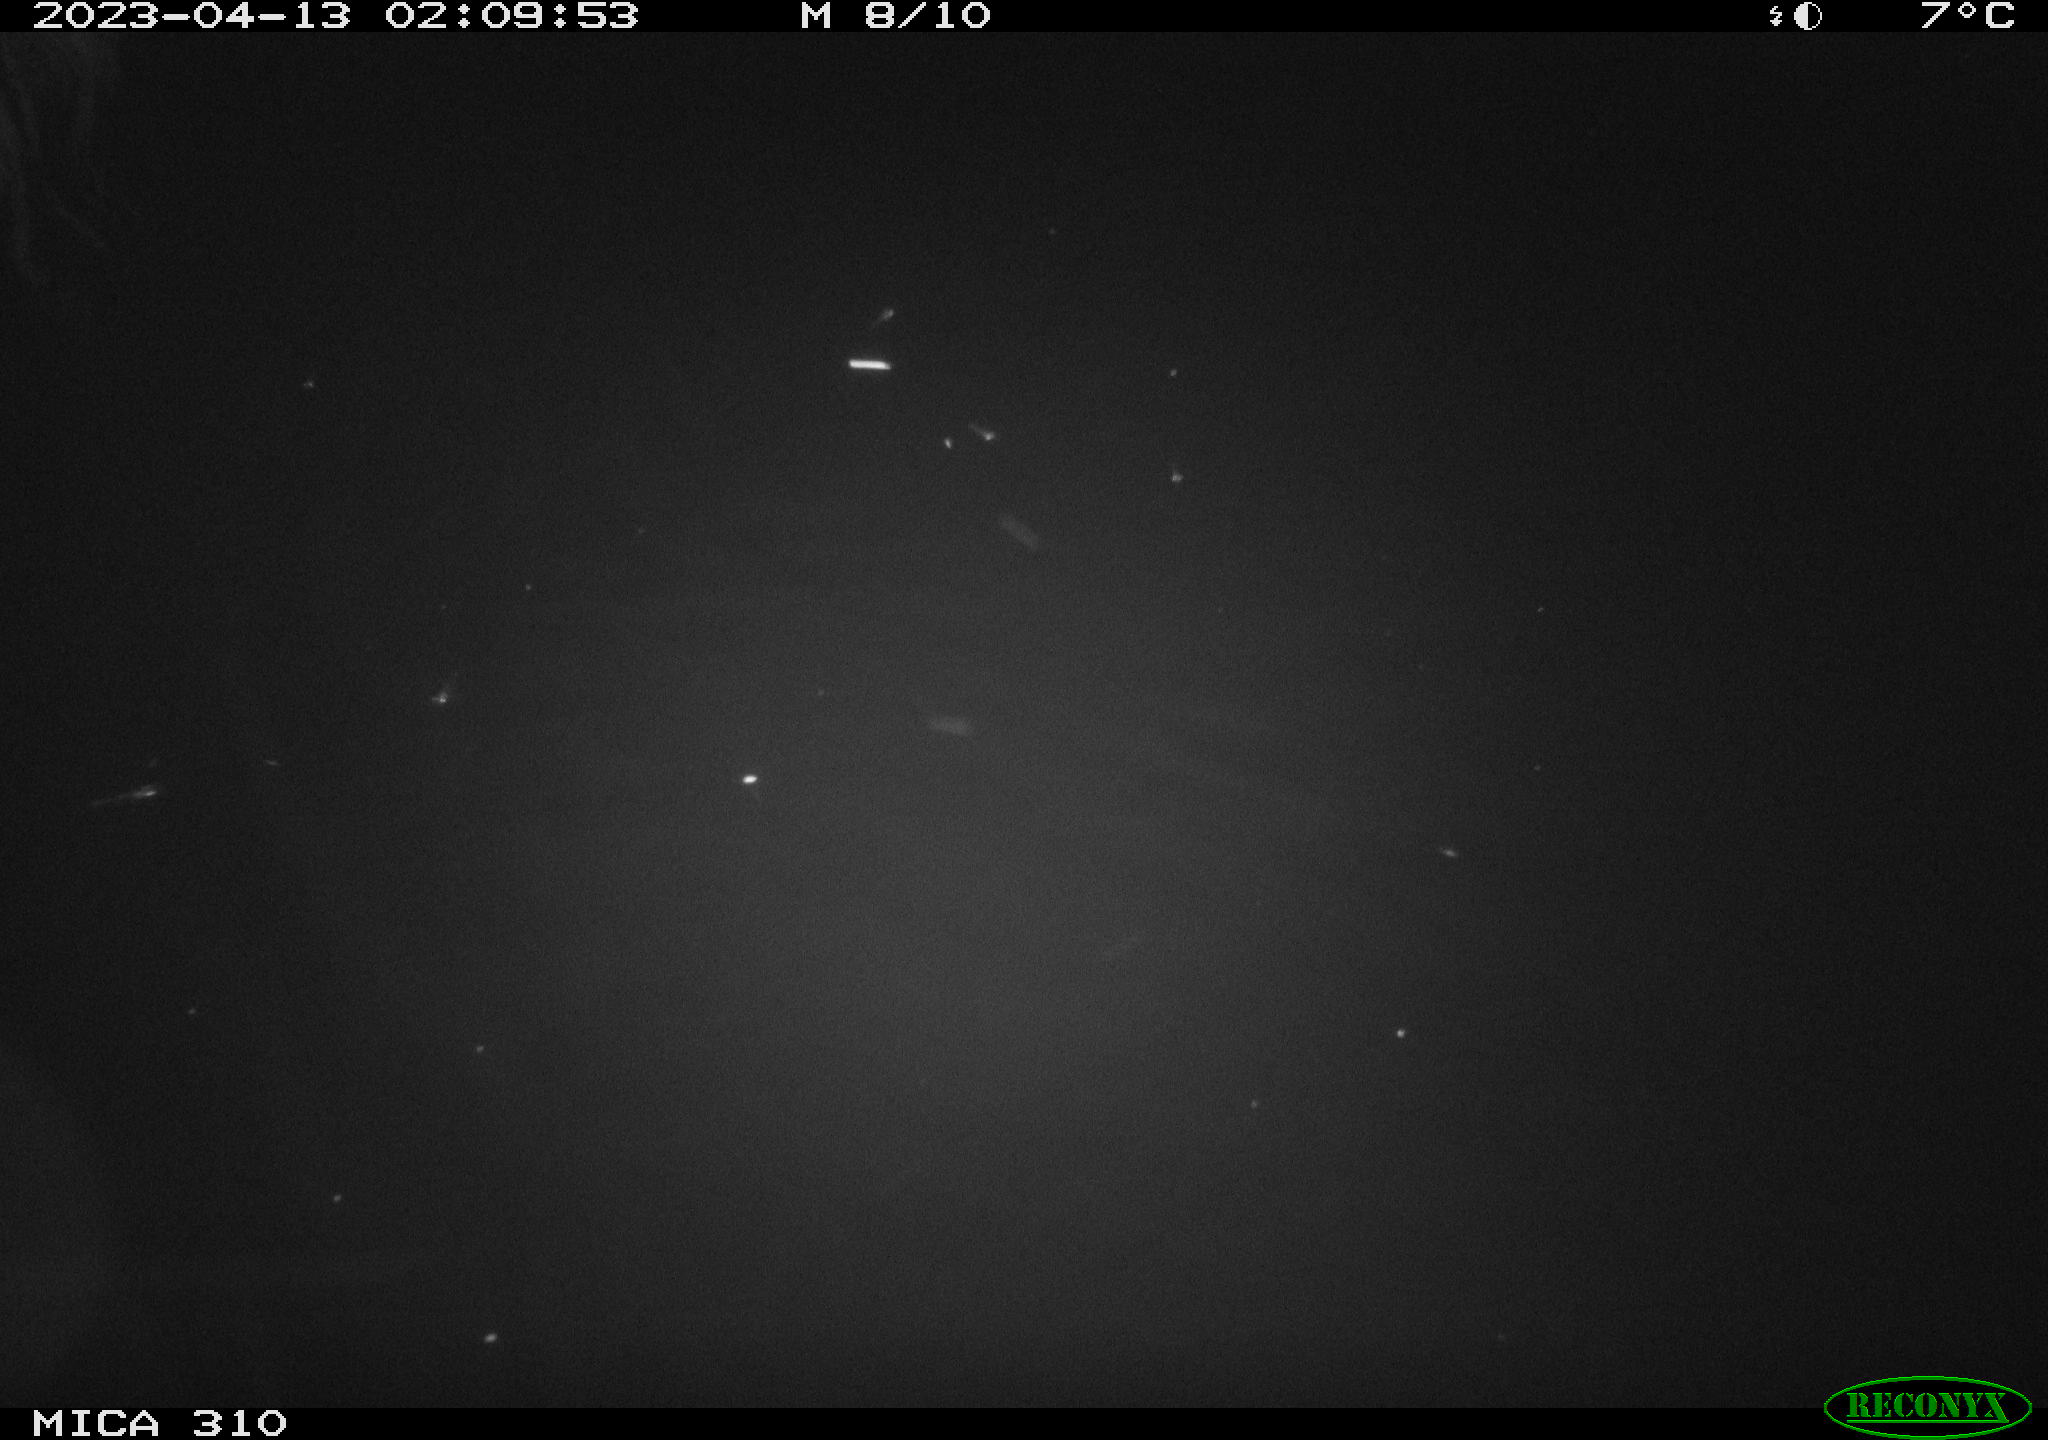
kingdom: Animalia
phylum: Chordata
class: Aves
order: Anseriformes
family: Anatidae
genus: Anas
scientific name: Anas
